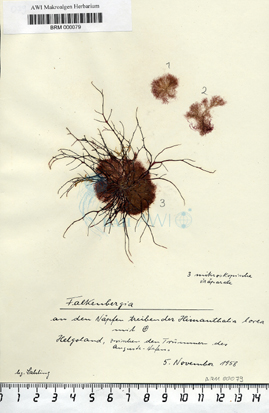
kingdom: Plantae
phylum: Rhodophyta
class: Florideophyceae
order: Bonnemaisoniales
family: Bonnemaisoniaceae
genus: Asparagopsis
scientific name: Asparagopsis
